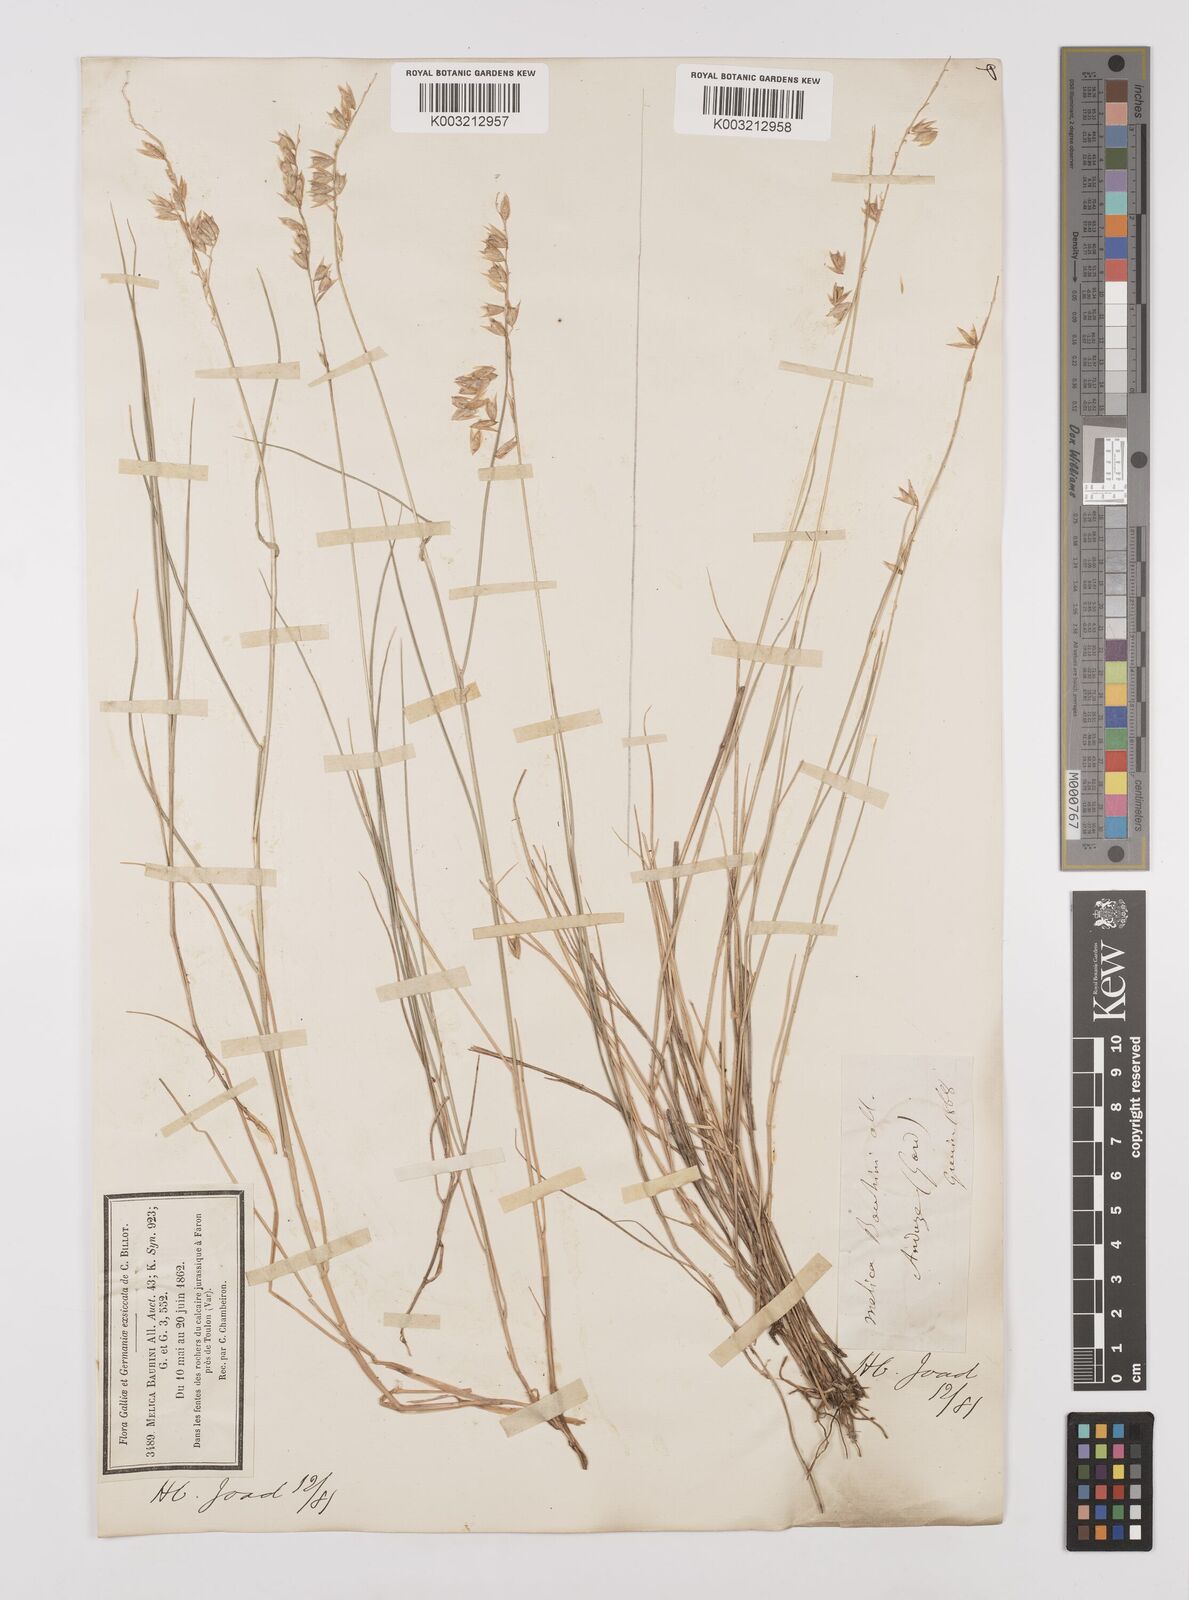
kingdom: Plantae
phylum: Tracheophyta
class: Liliopsida
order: Poales
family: Poaceae
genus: Melica
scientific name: Melica amethystina
